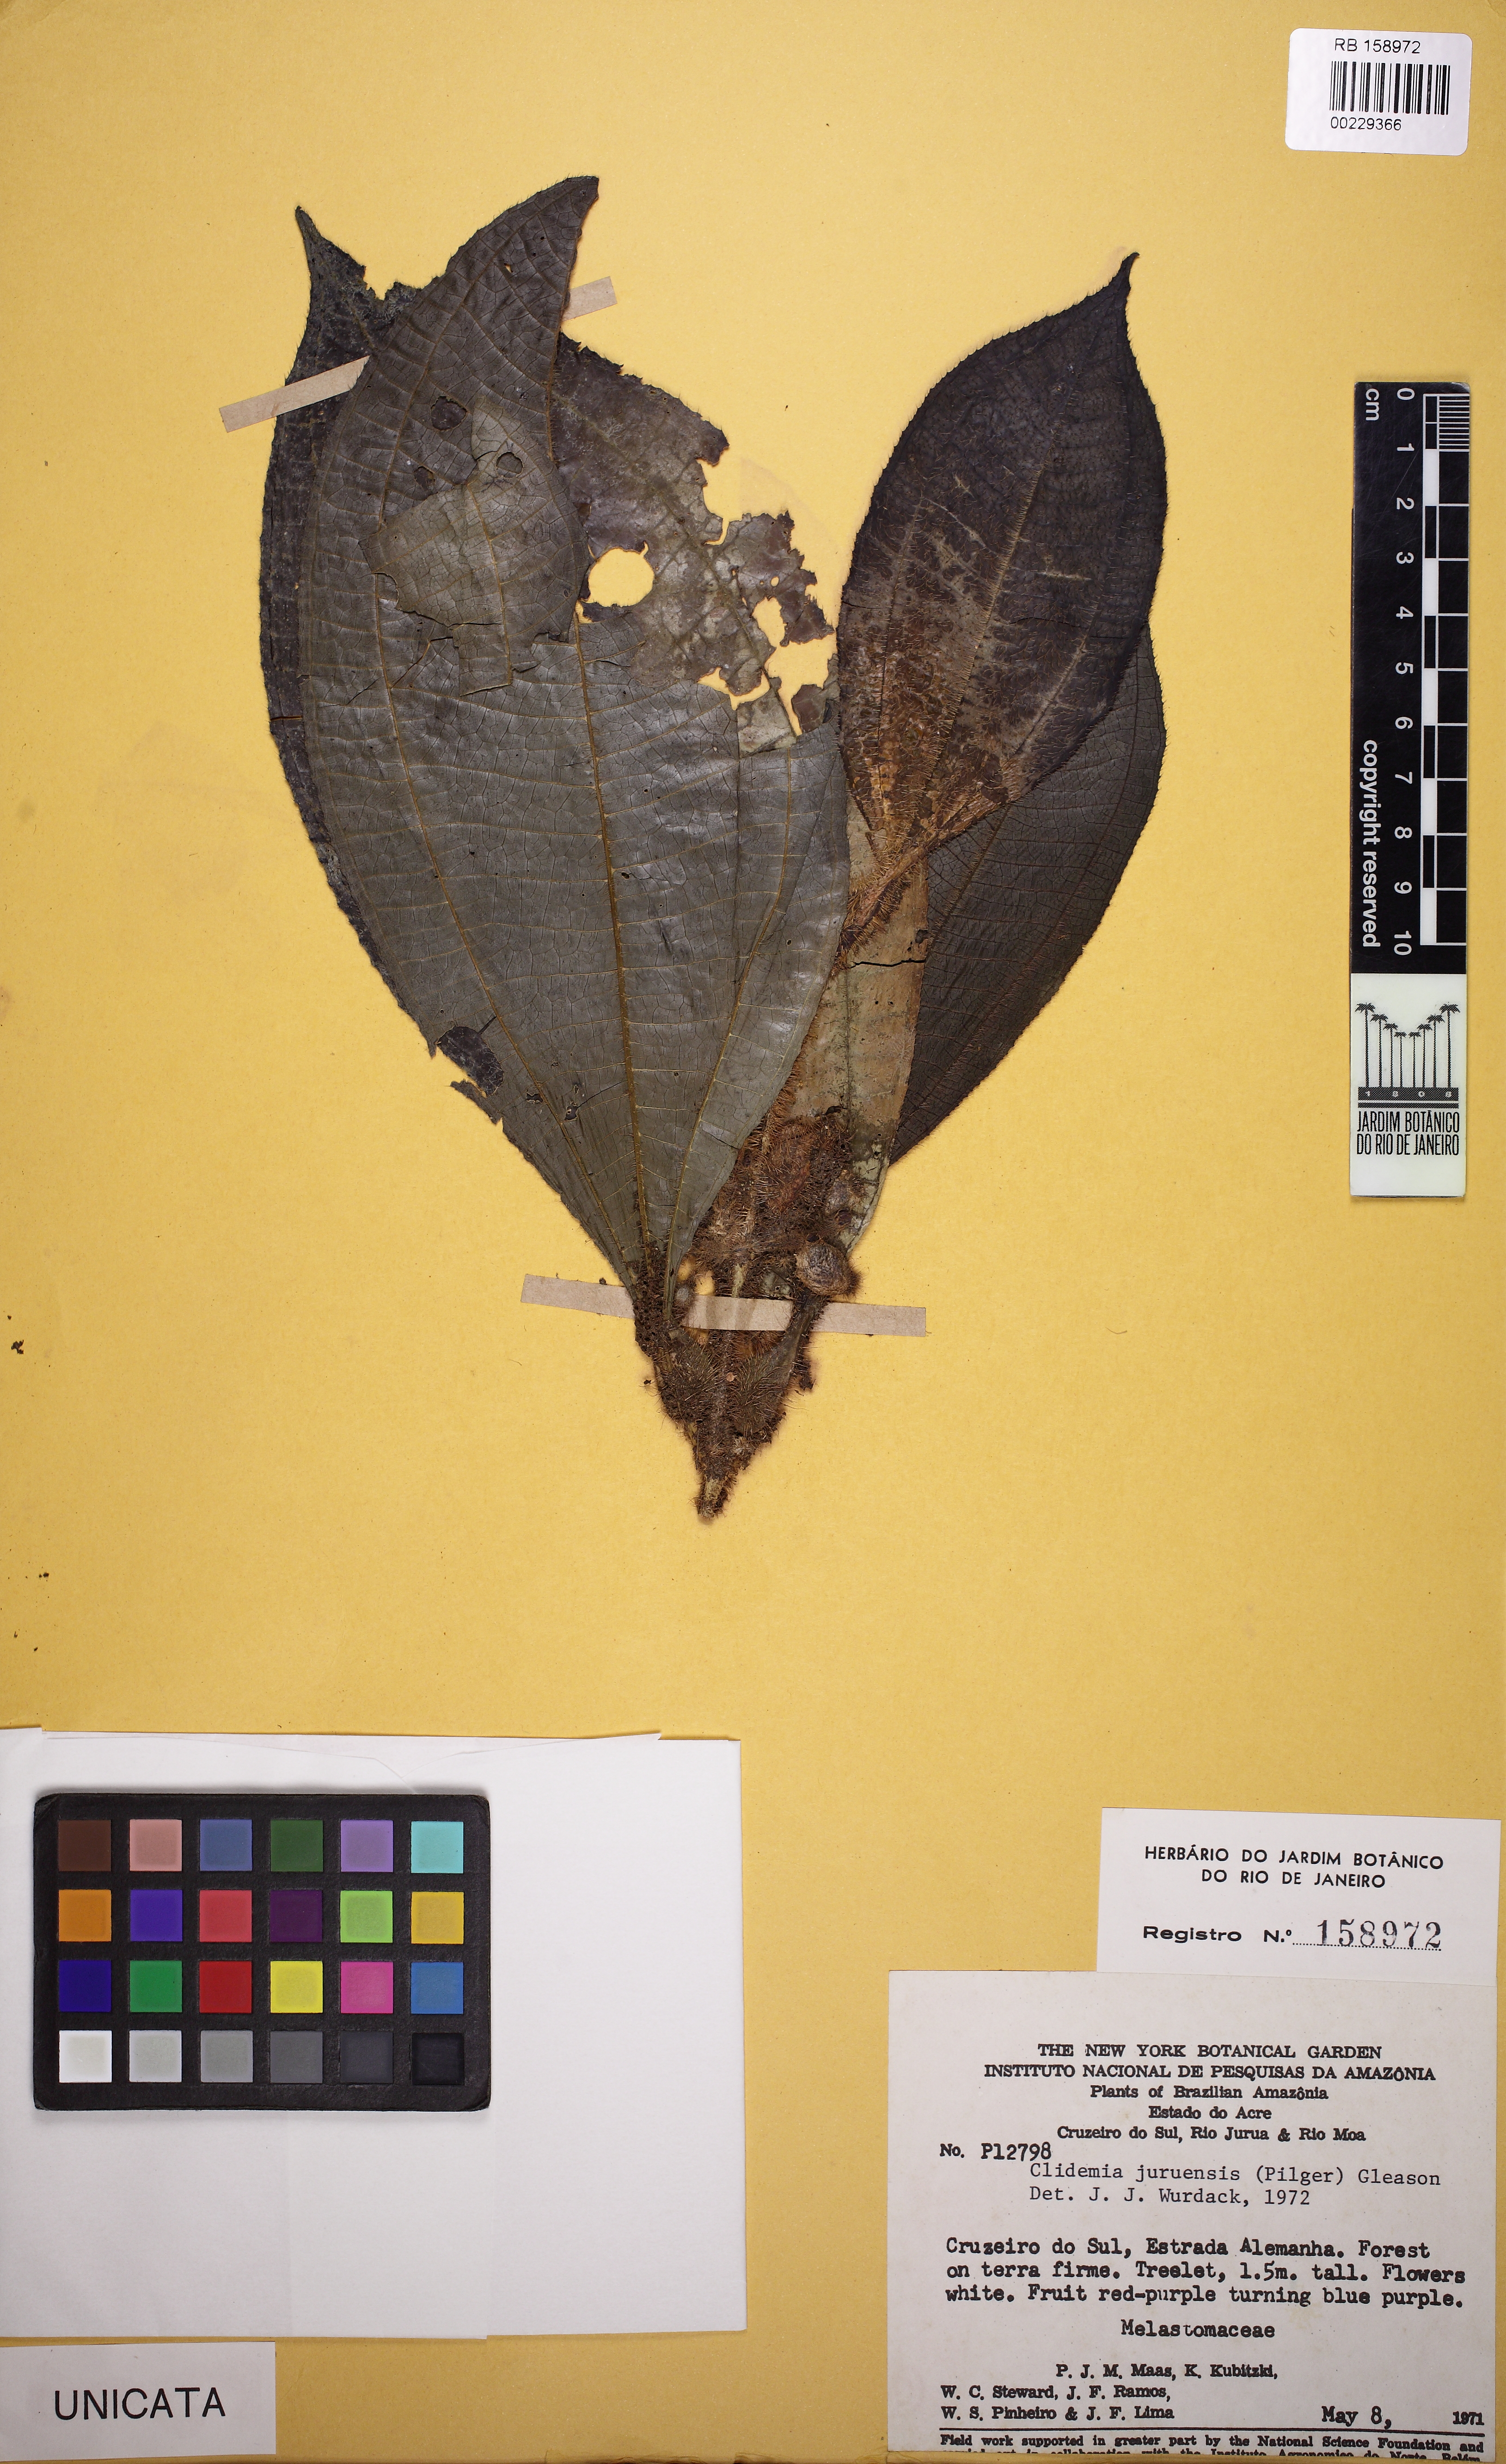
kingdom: Plantae
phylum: Tracheophyta
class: Magnoliopsida
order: Myrtales
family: Melastomataceae
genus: Miconia
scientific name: Miconia formicojuruensis
